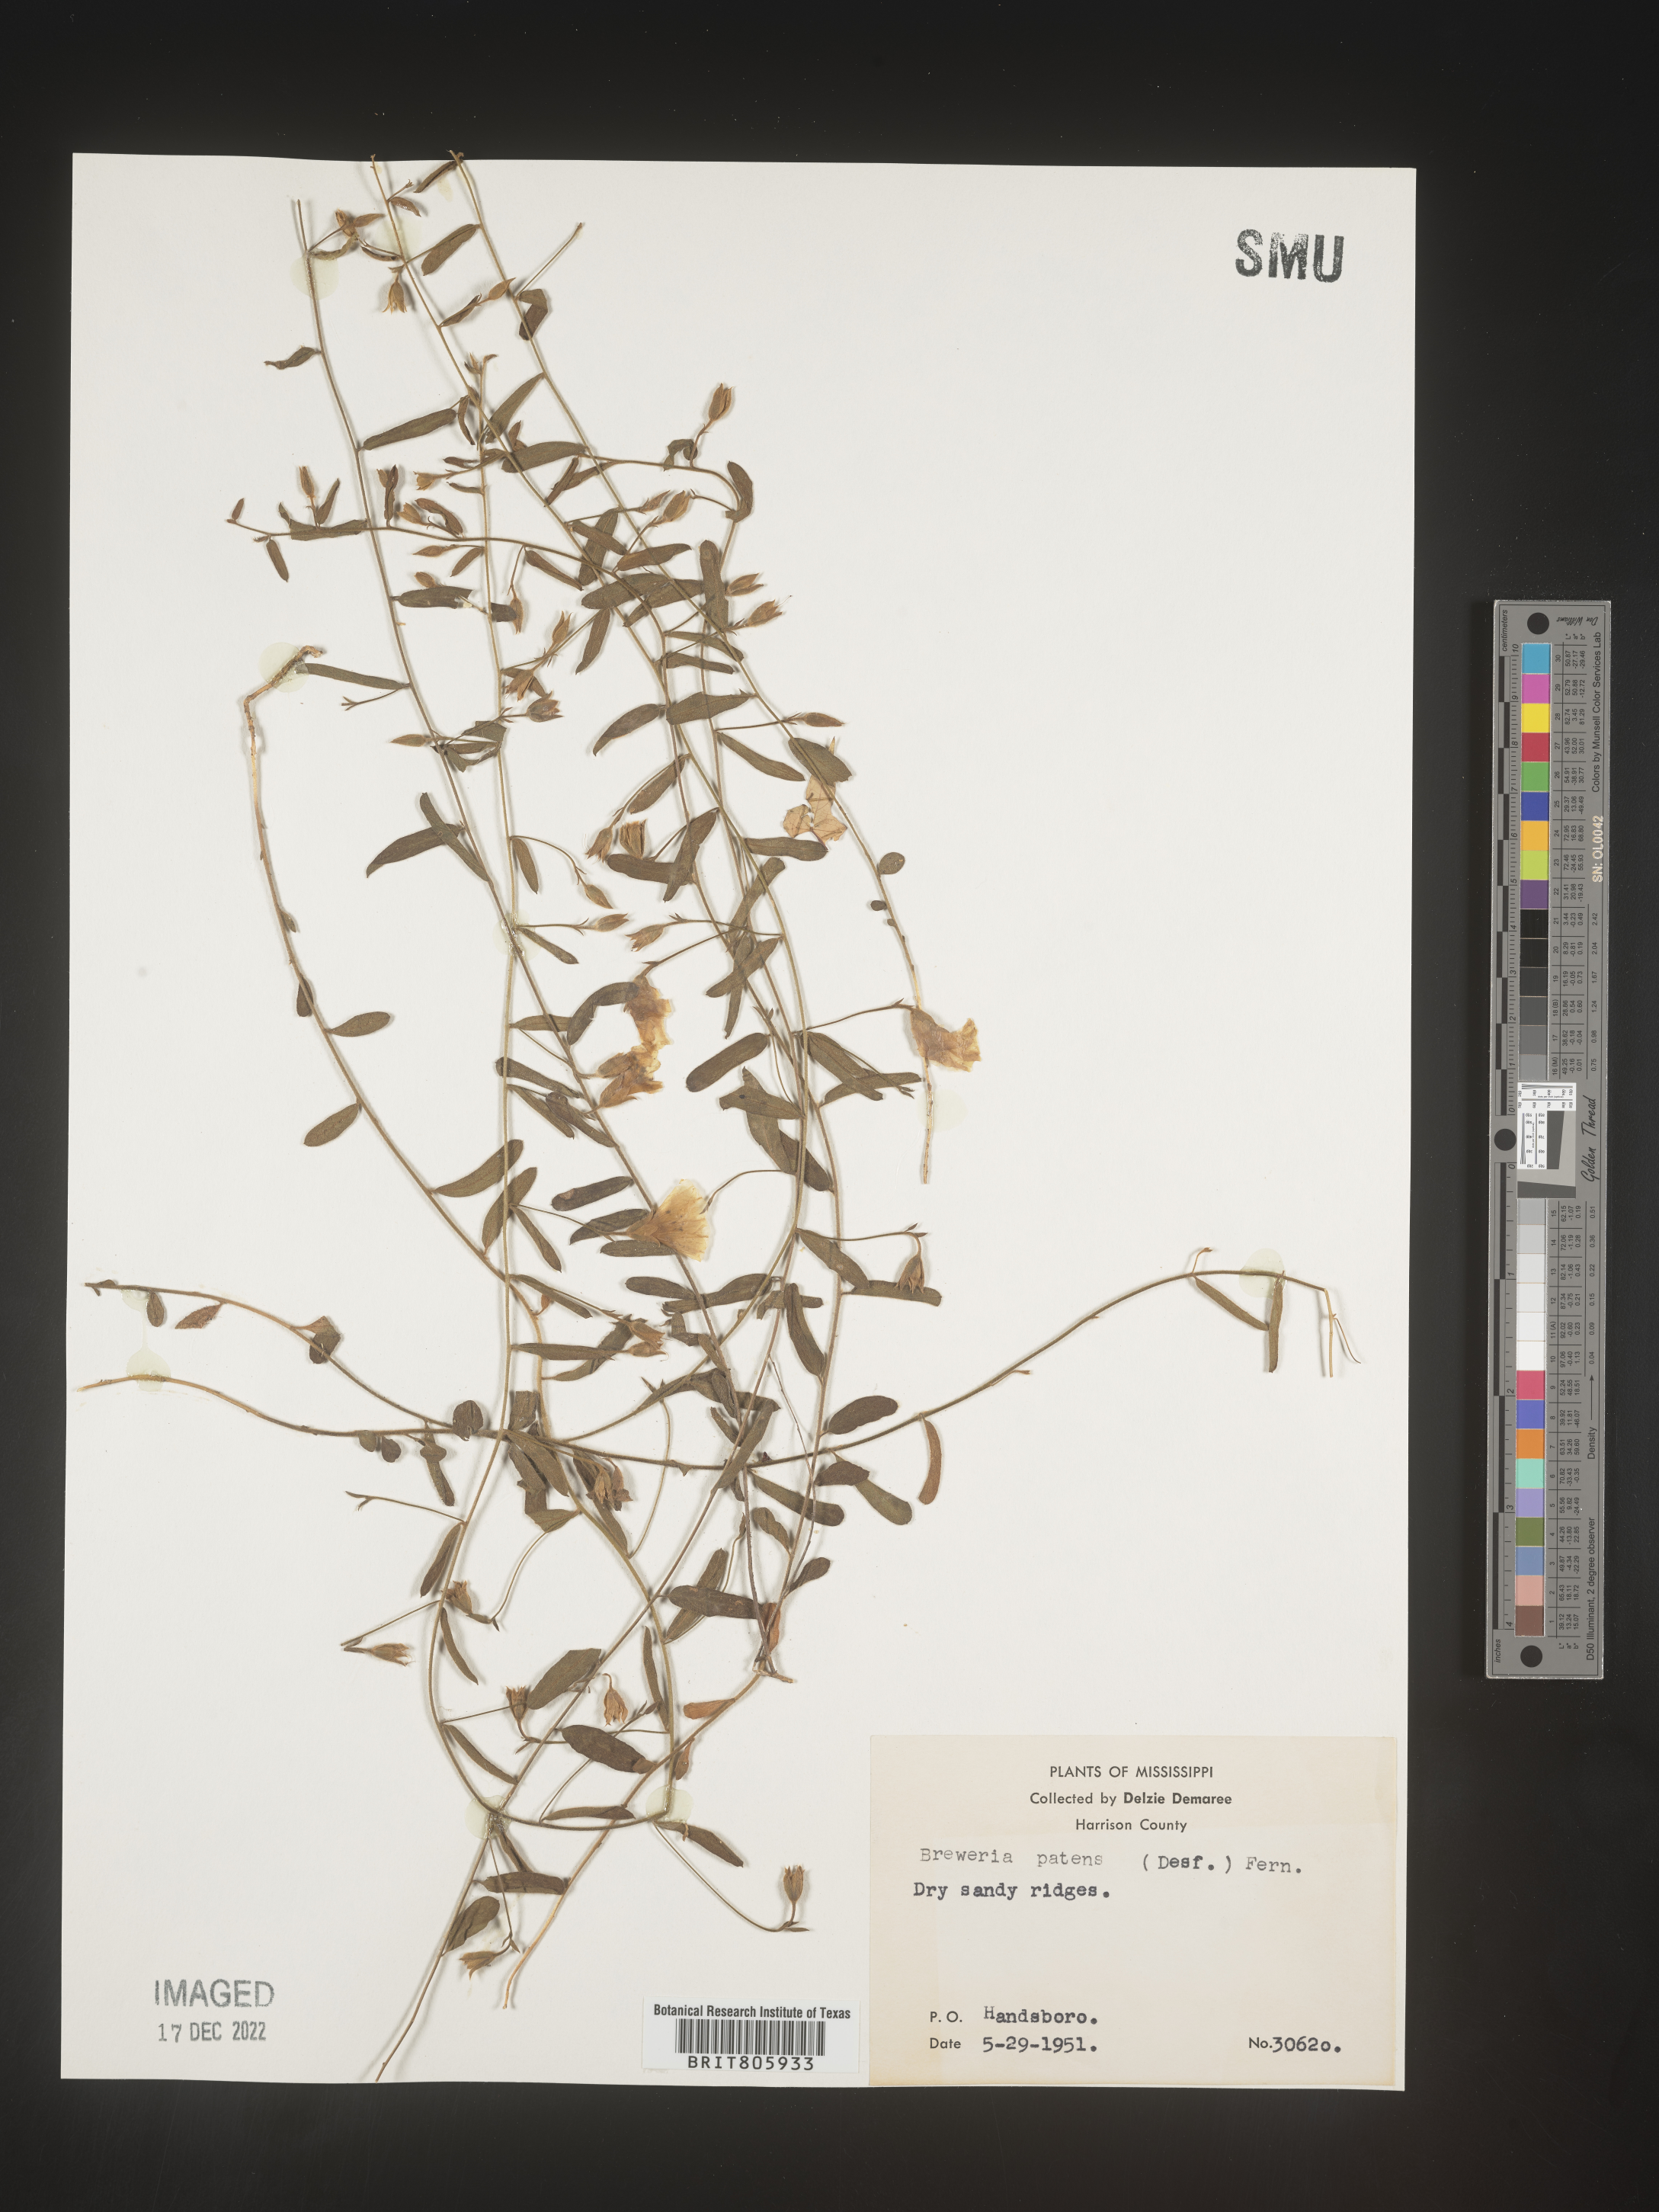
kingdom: Plantae
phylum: Tracheophyta
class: Magnoliopsida
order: Solanales
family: Convolvulaceae
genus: Stylisma
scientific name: Stylisma
